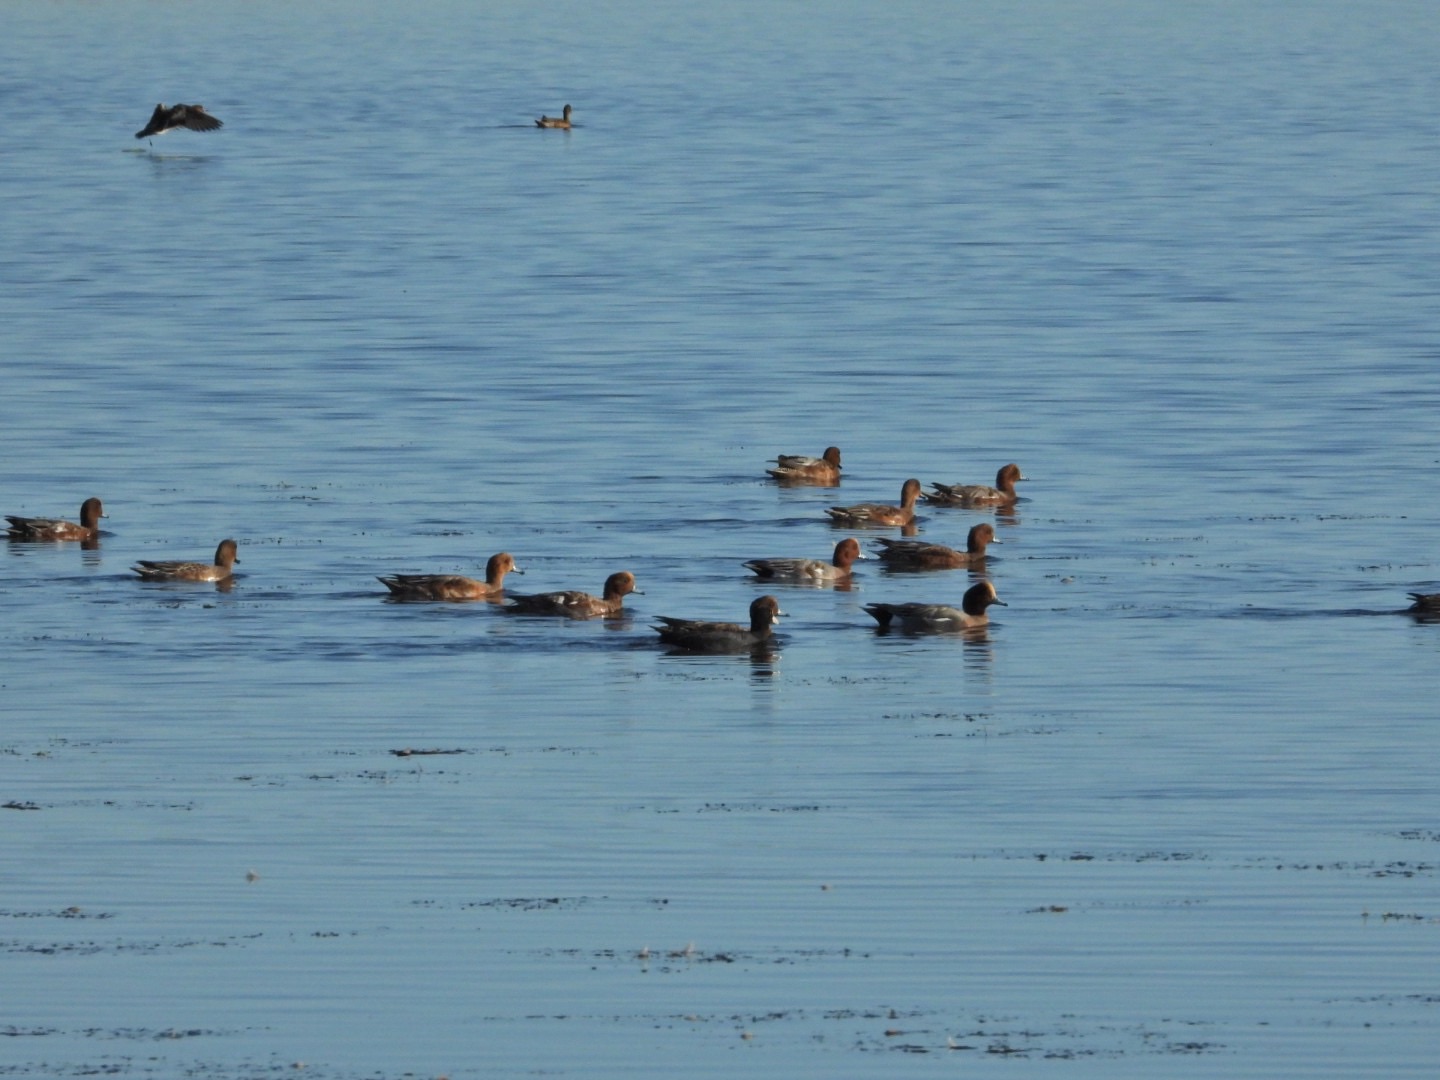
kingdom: Animalia
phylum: Chordata
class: Aves
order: Anseriformes
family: Anatidae
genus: Mareca
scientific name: Mareca penelope
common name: Pibeand
